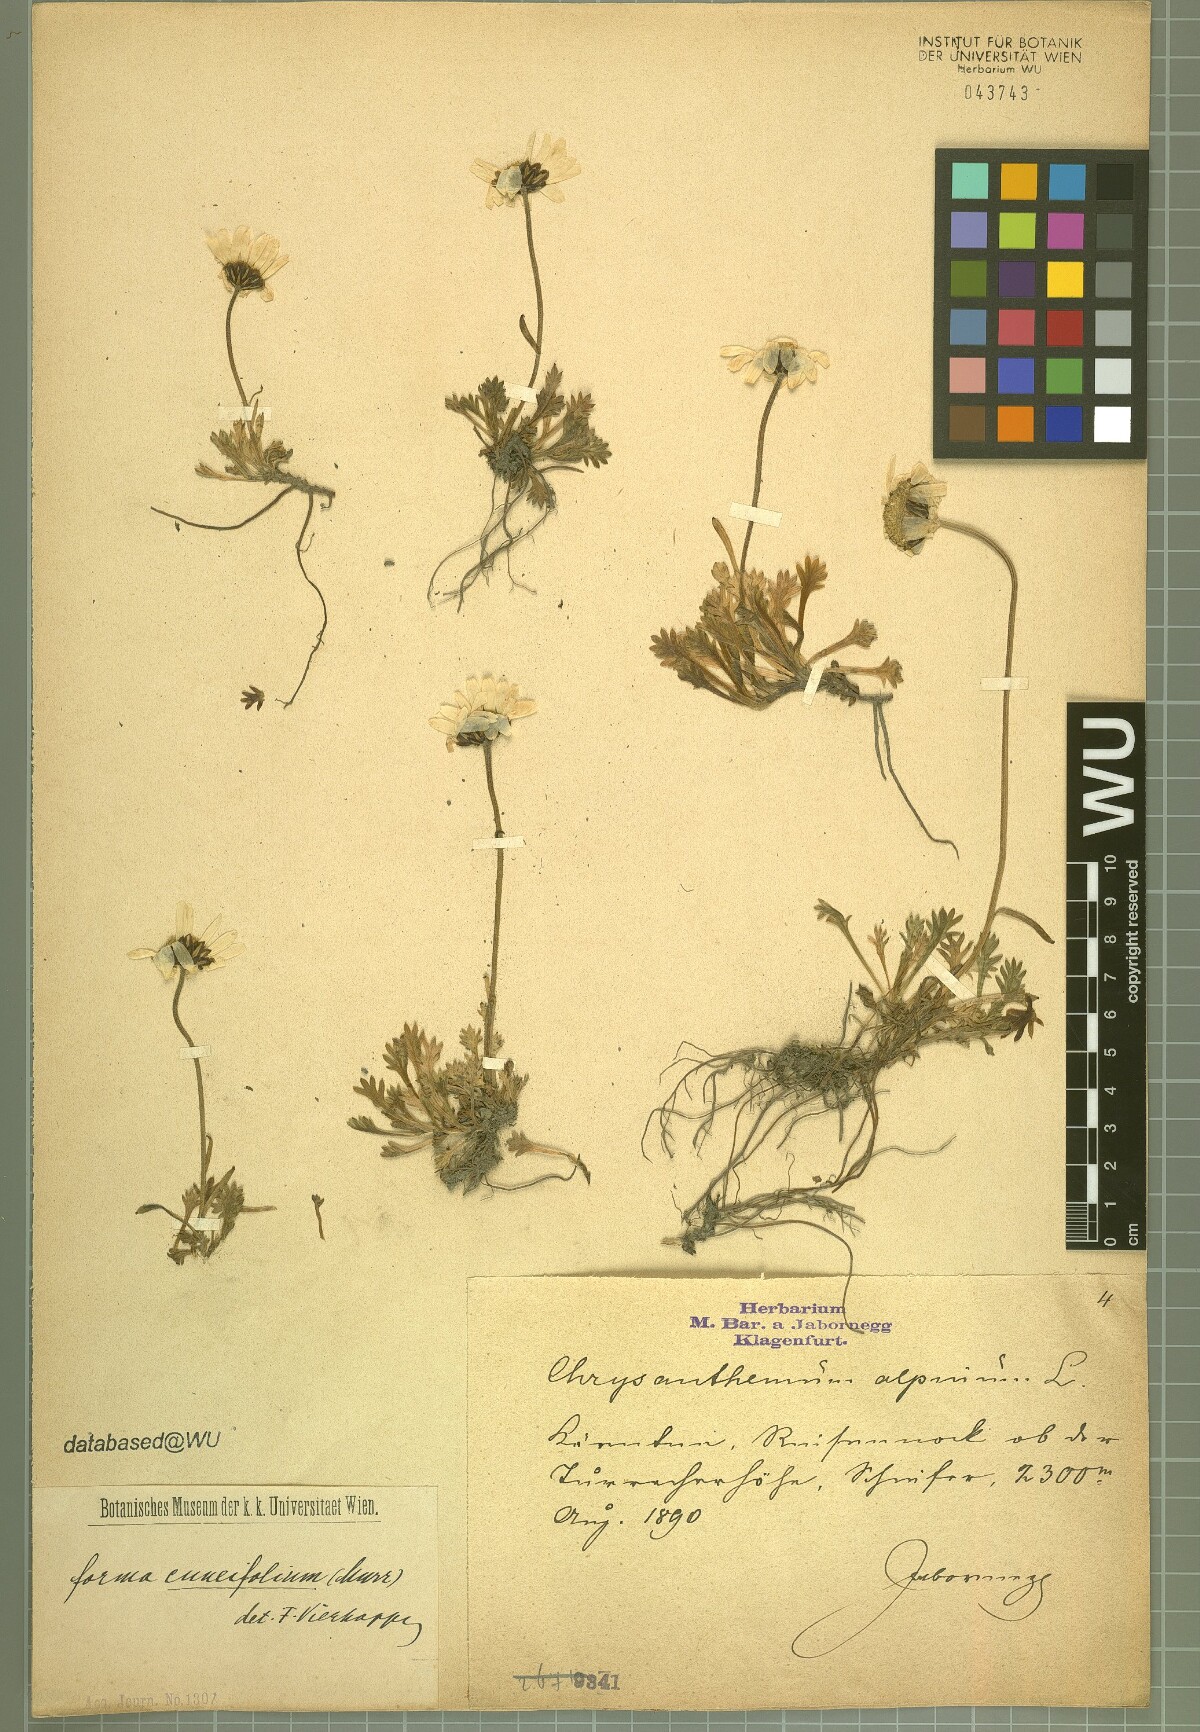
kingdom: Plantae
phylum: Tracheophyta
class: Magnoliopsida
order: Asterales
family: Asteraceae
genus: Leucanthemopsis
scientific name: Leucanthemopsis alpina
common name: Alpine moon daisy
